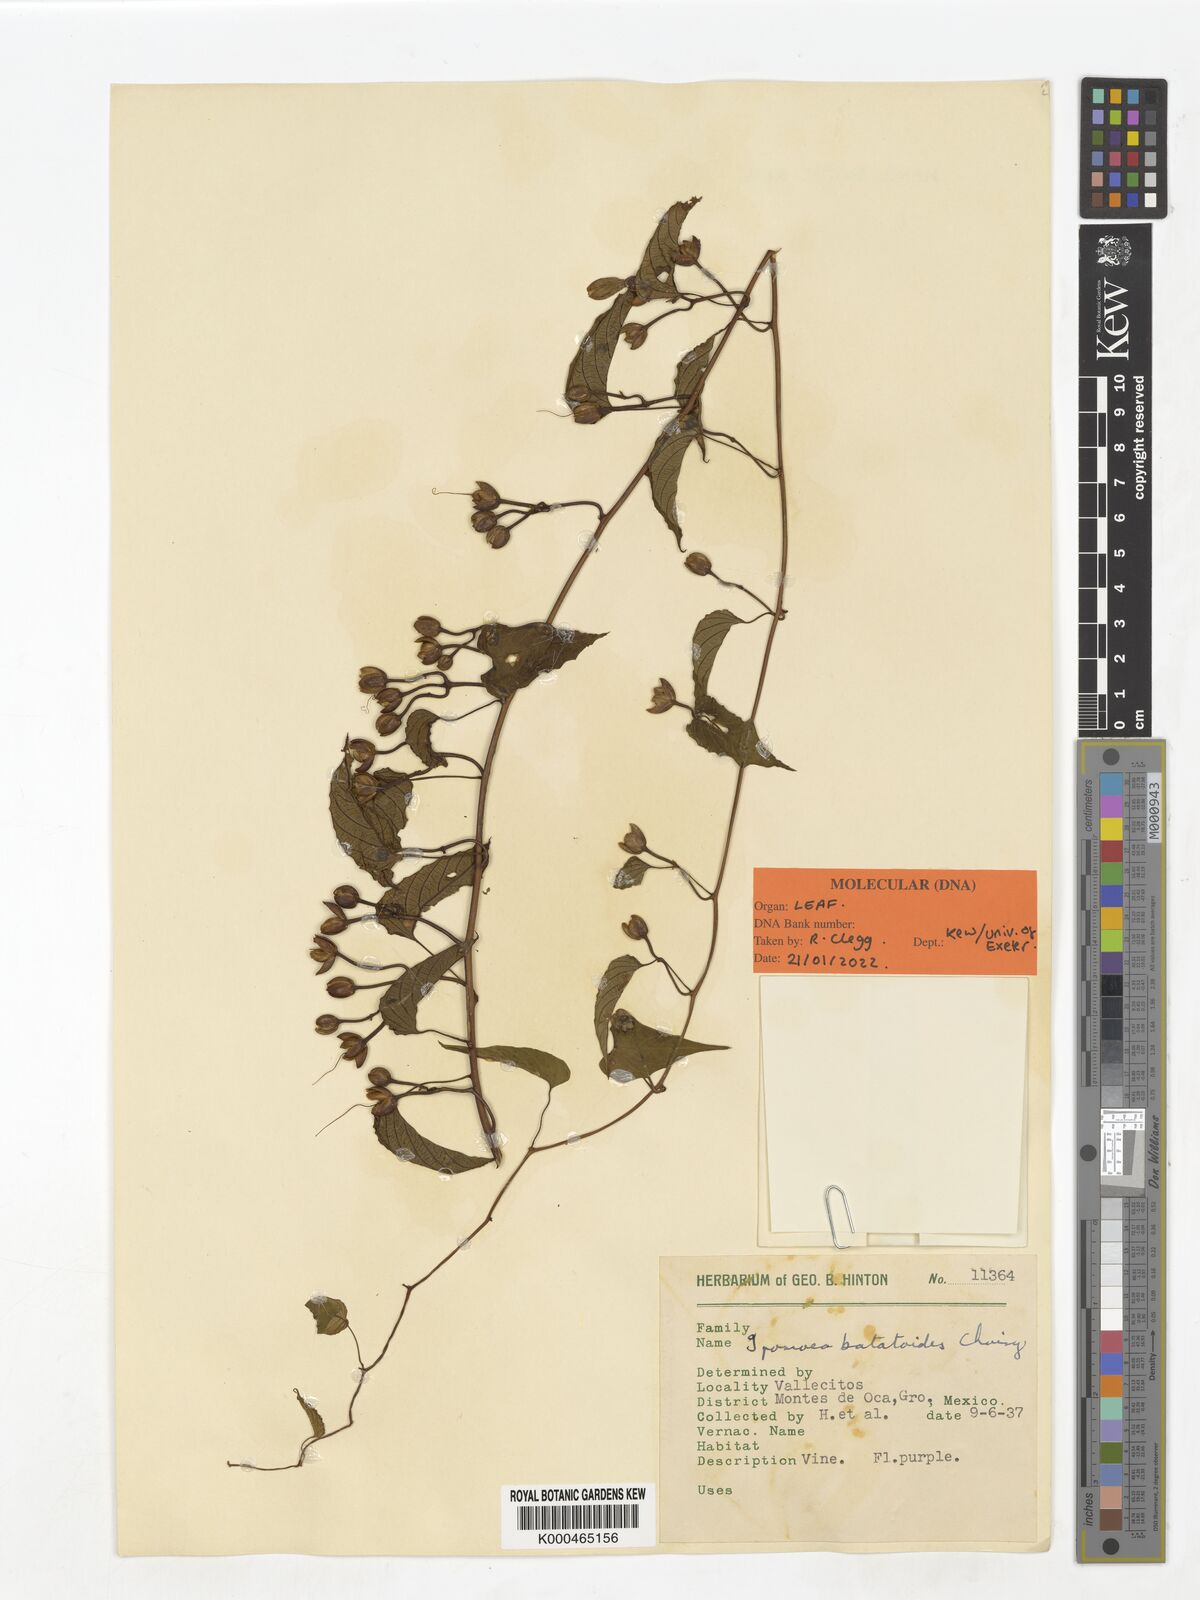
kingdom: Plantae
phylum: Tracheophyta
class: Magnoliopsida
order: Solanales
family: Convolvulaceae
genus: Ipomoea
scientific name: Ipomoea orizabensis
